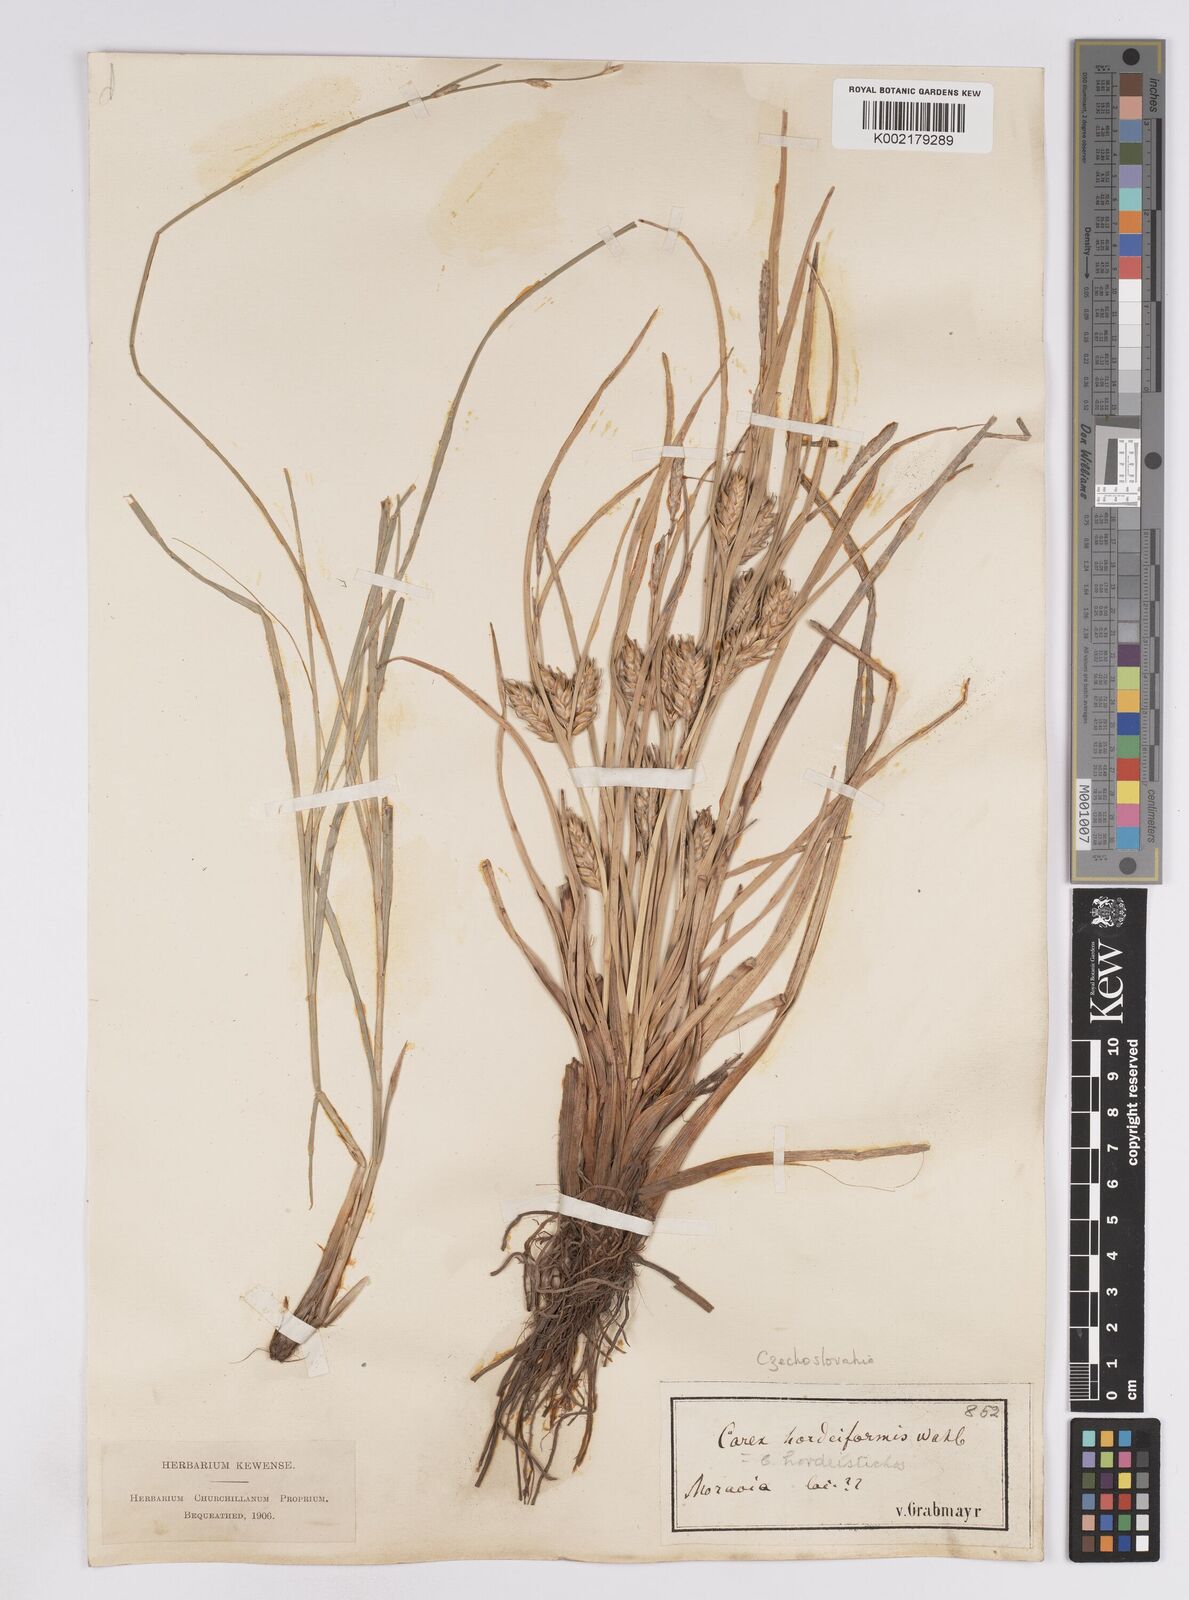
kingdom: Plantae
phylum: Tracheophyta
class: Liliopsida
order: Poales
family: Cyperaceae
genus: Carex
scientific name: Carex hordeistichos
